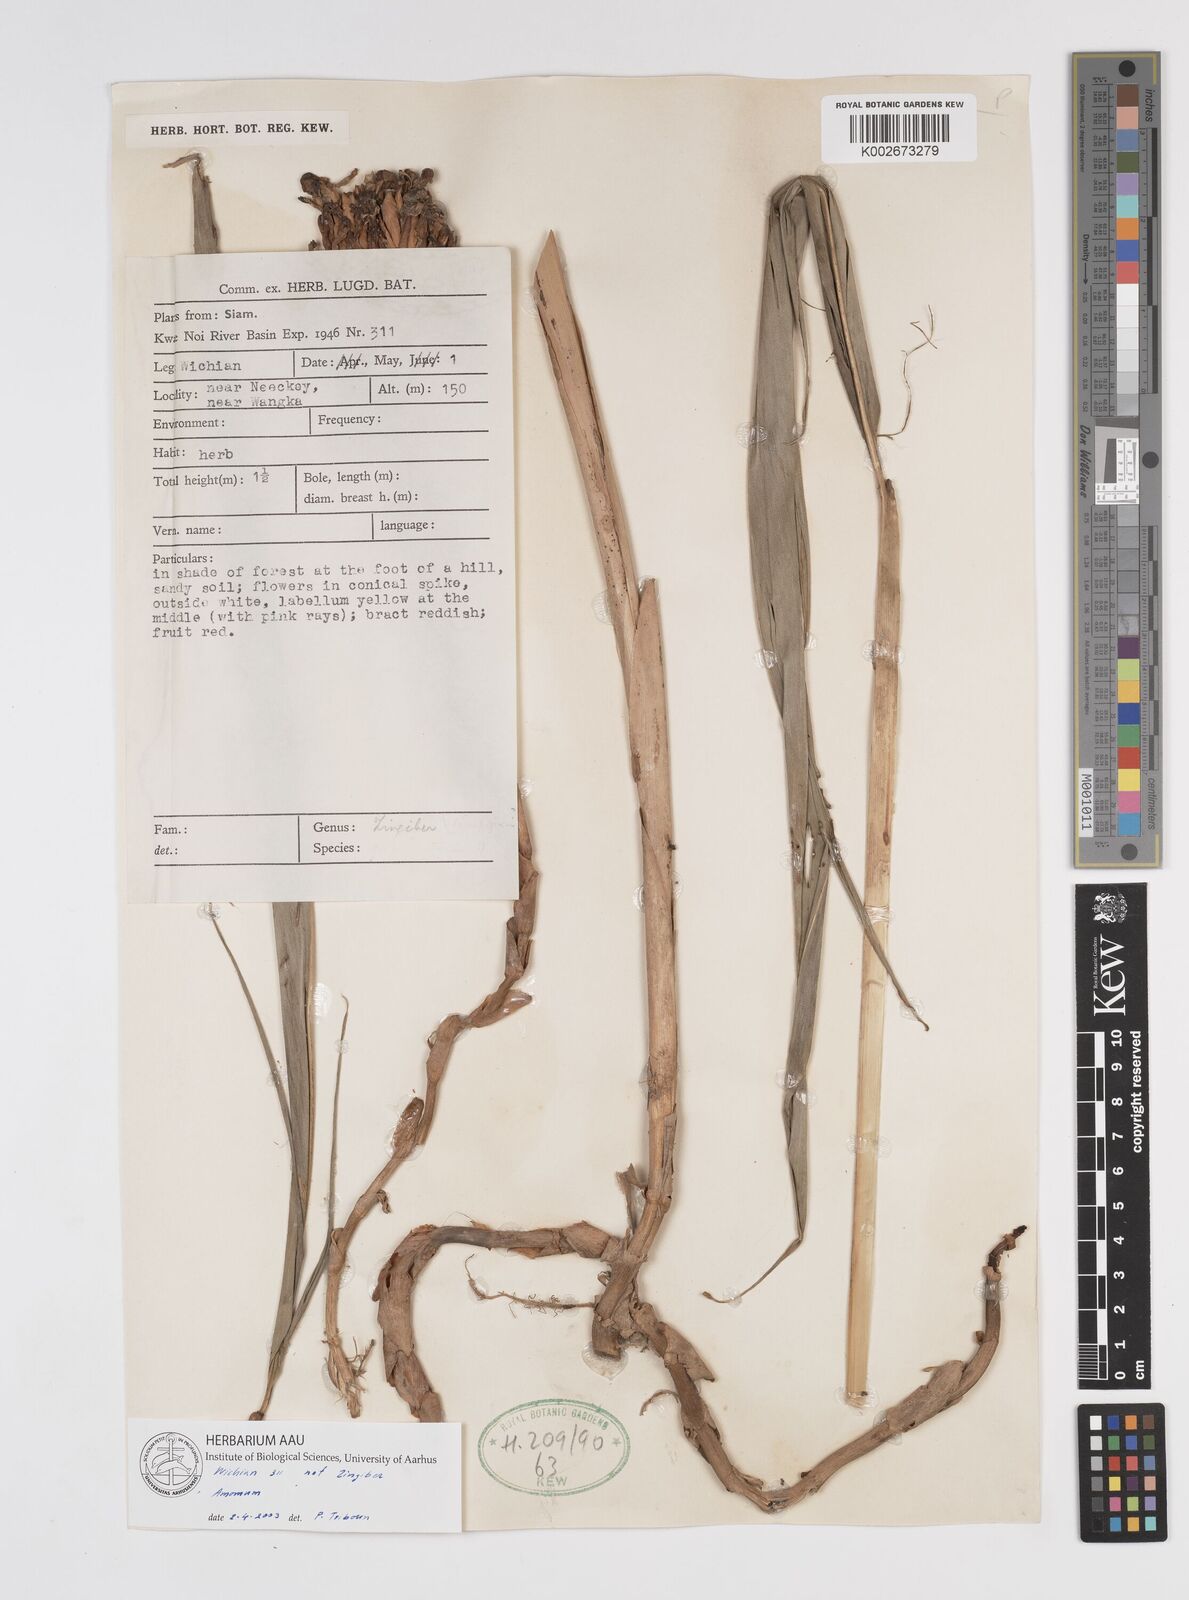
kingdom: Plantae
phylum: Tracheophyta
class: Liliopsida
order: Zingiberales
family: Zingiberaceae
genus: Amomum
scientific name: Amomum
